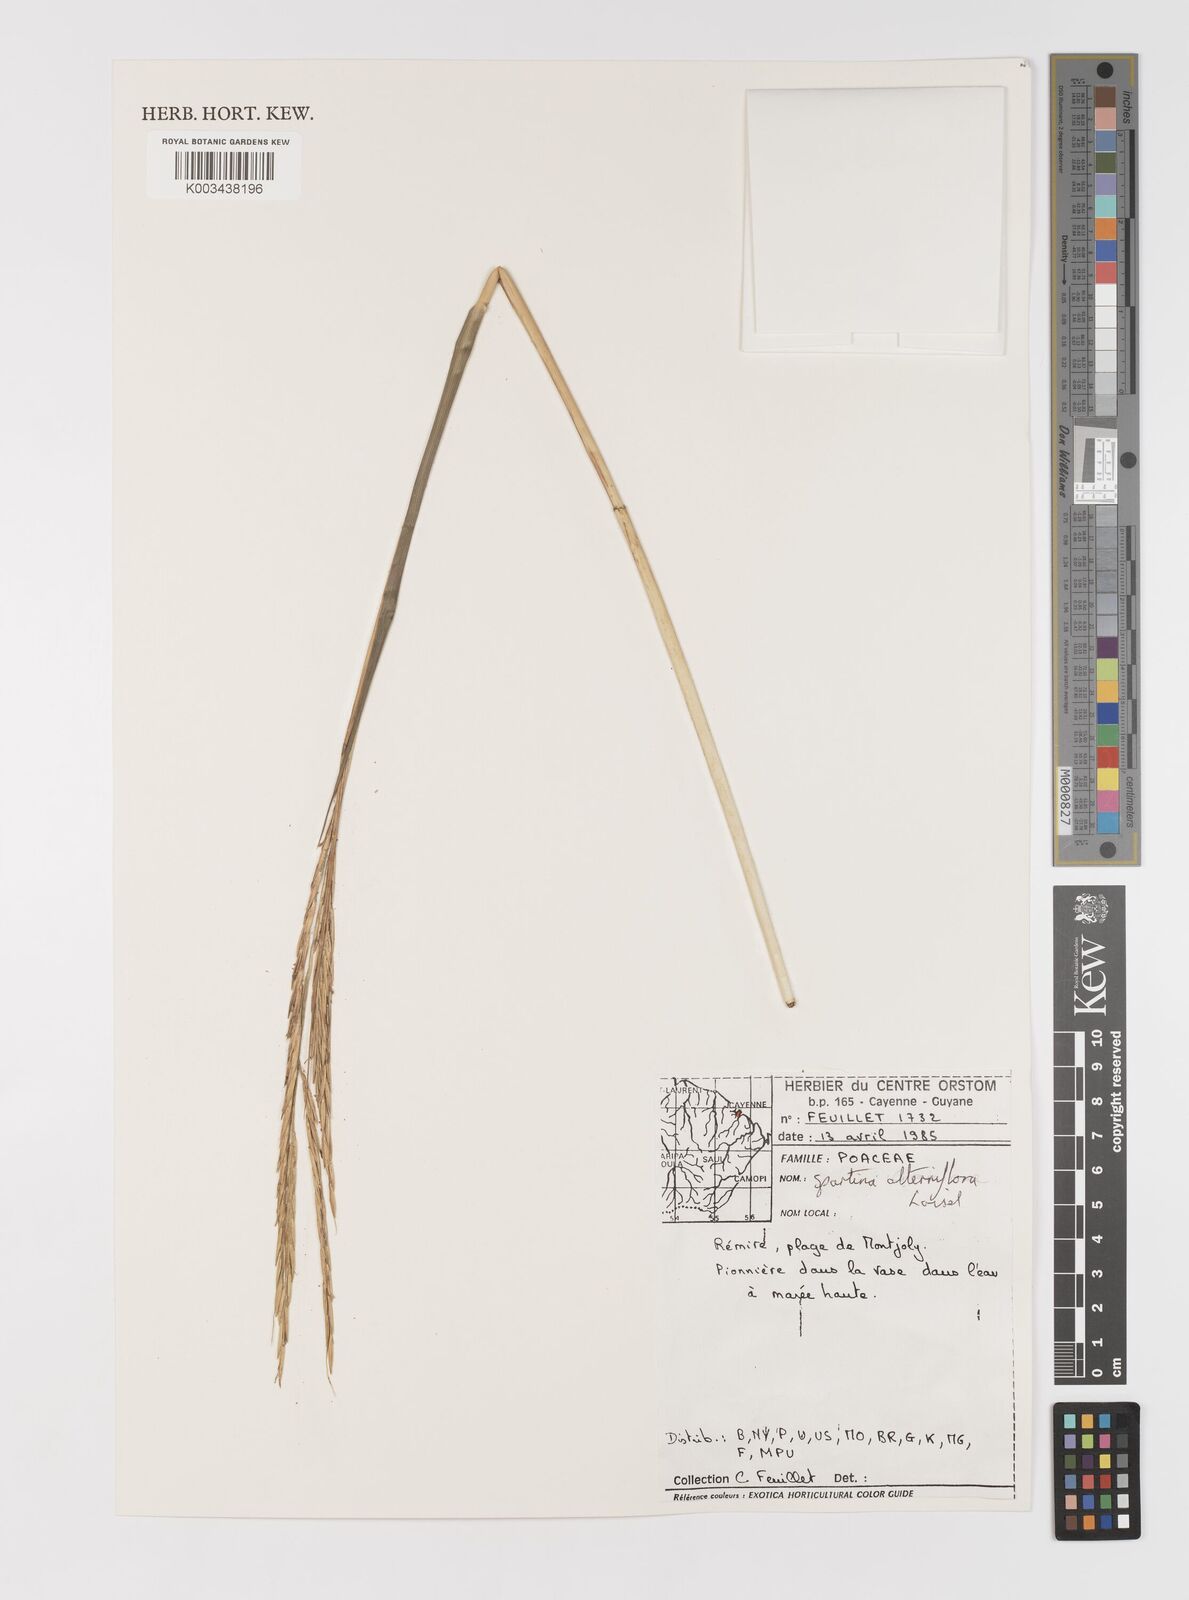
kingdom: Plantae
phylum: Tracheophyta
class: Liliopsida
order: Poales
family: Poaceae
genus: Sporobolus
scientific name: Sporobolus alterniflorus
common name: Atlantic cordgrass
